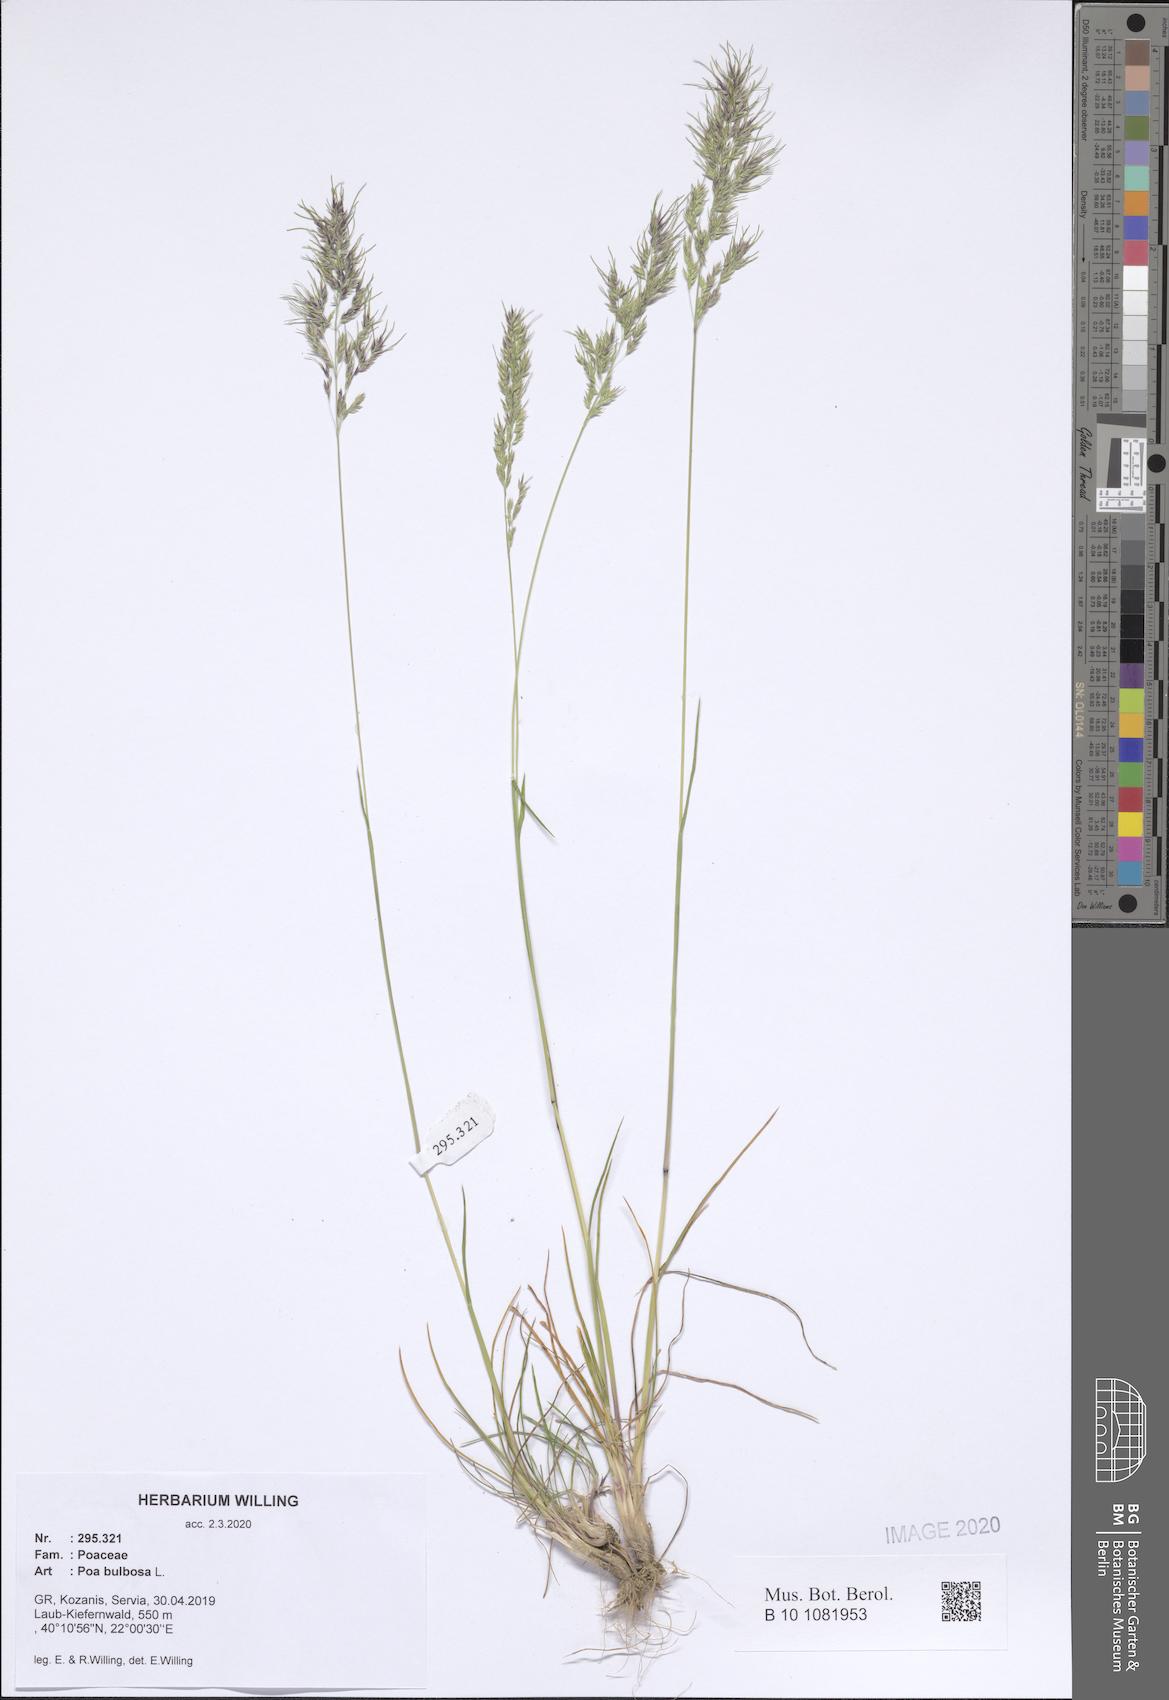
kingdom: Plantae
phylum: Tracheophyta
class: Liliopsida
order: Poales
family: Poaceae
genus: Poa
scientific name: Poa bulbosa
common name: Bulbous bluegrass
